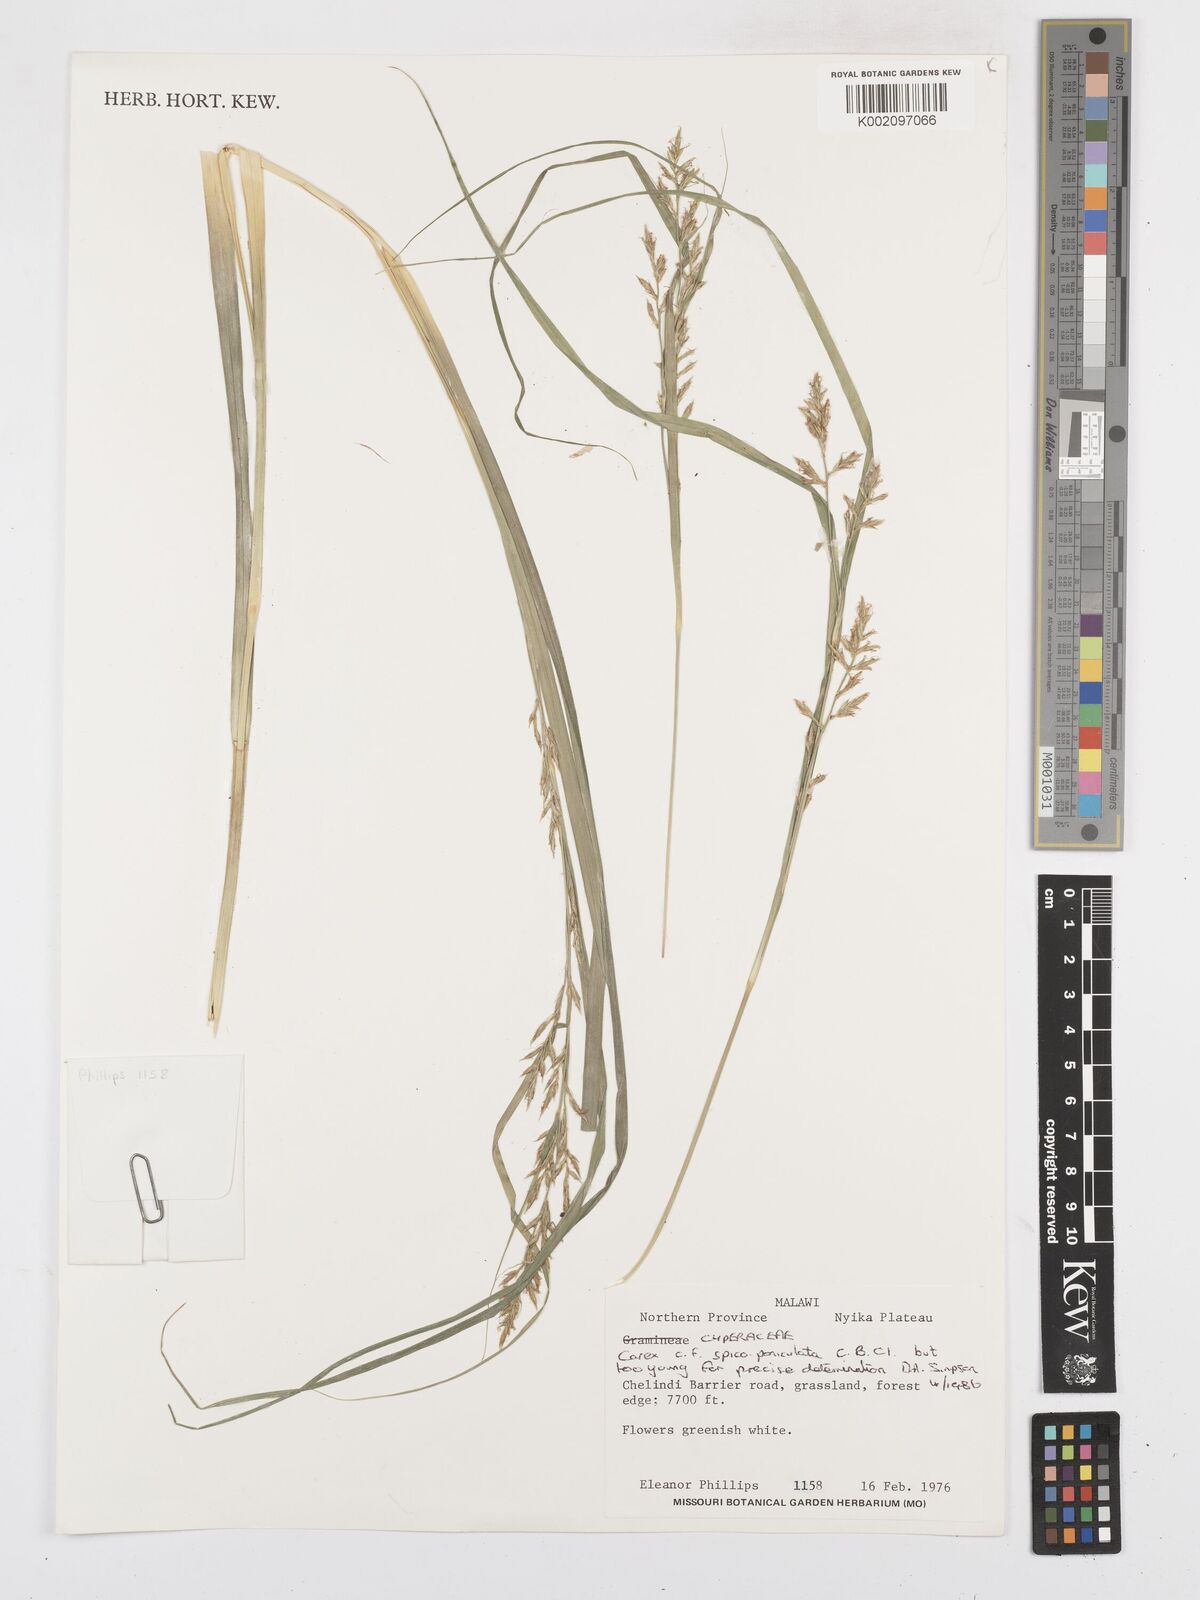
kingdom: Plantae
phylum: Tracheophyta
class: Liliopsida
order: Poales
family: Cyperaceae
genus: Carex
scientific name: Carex spicatopaniculata
